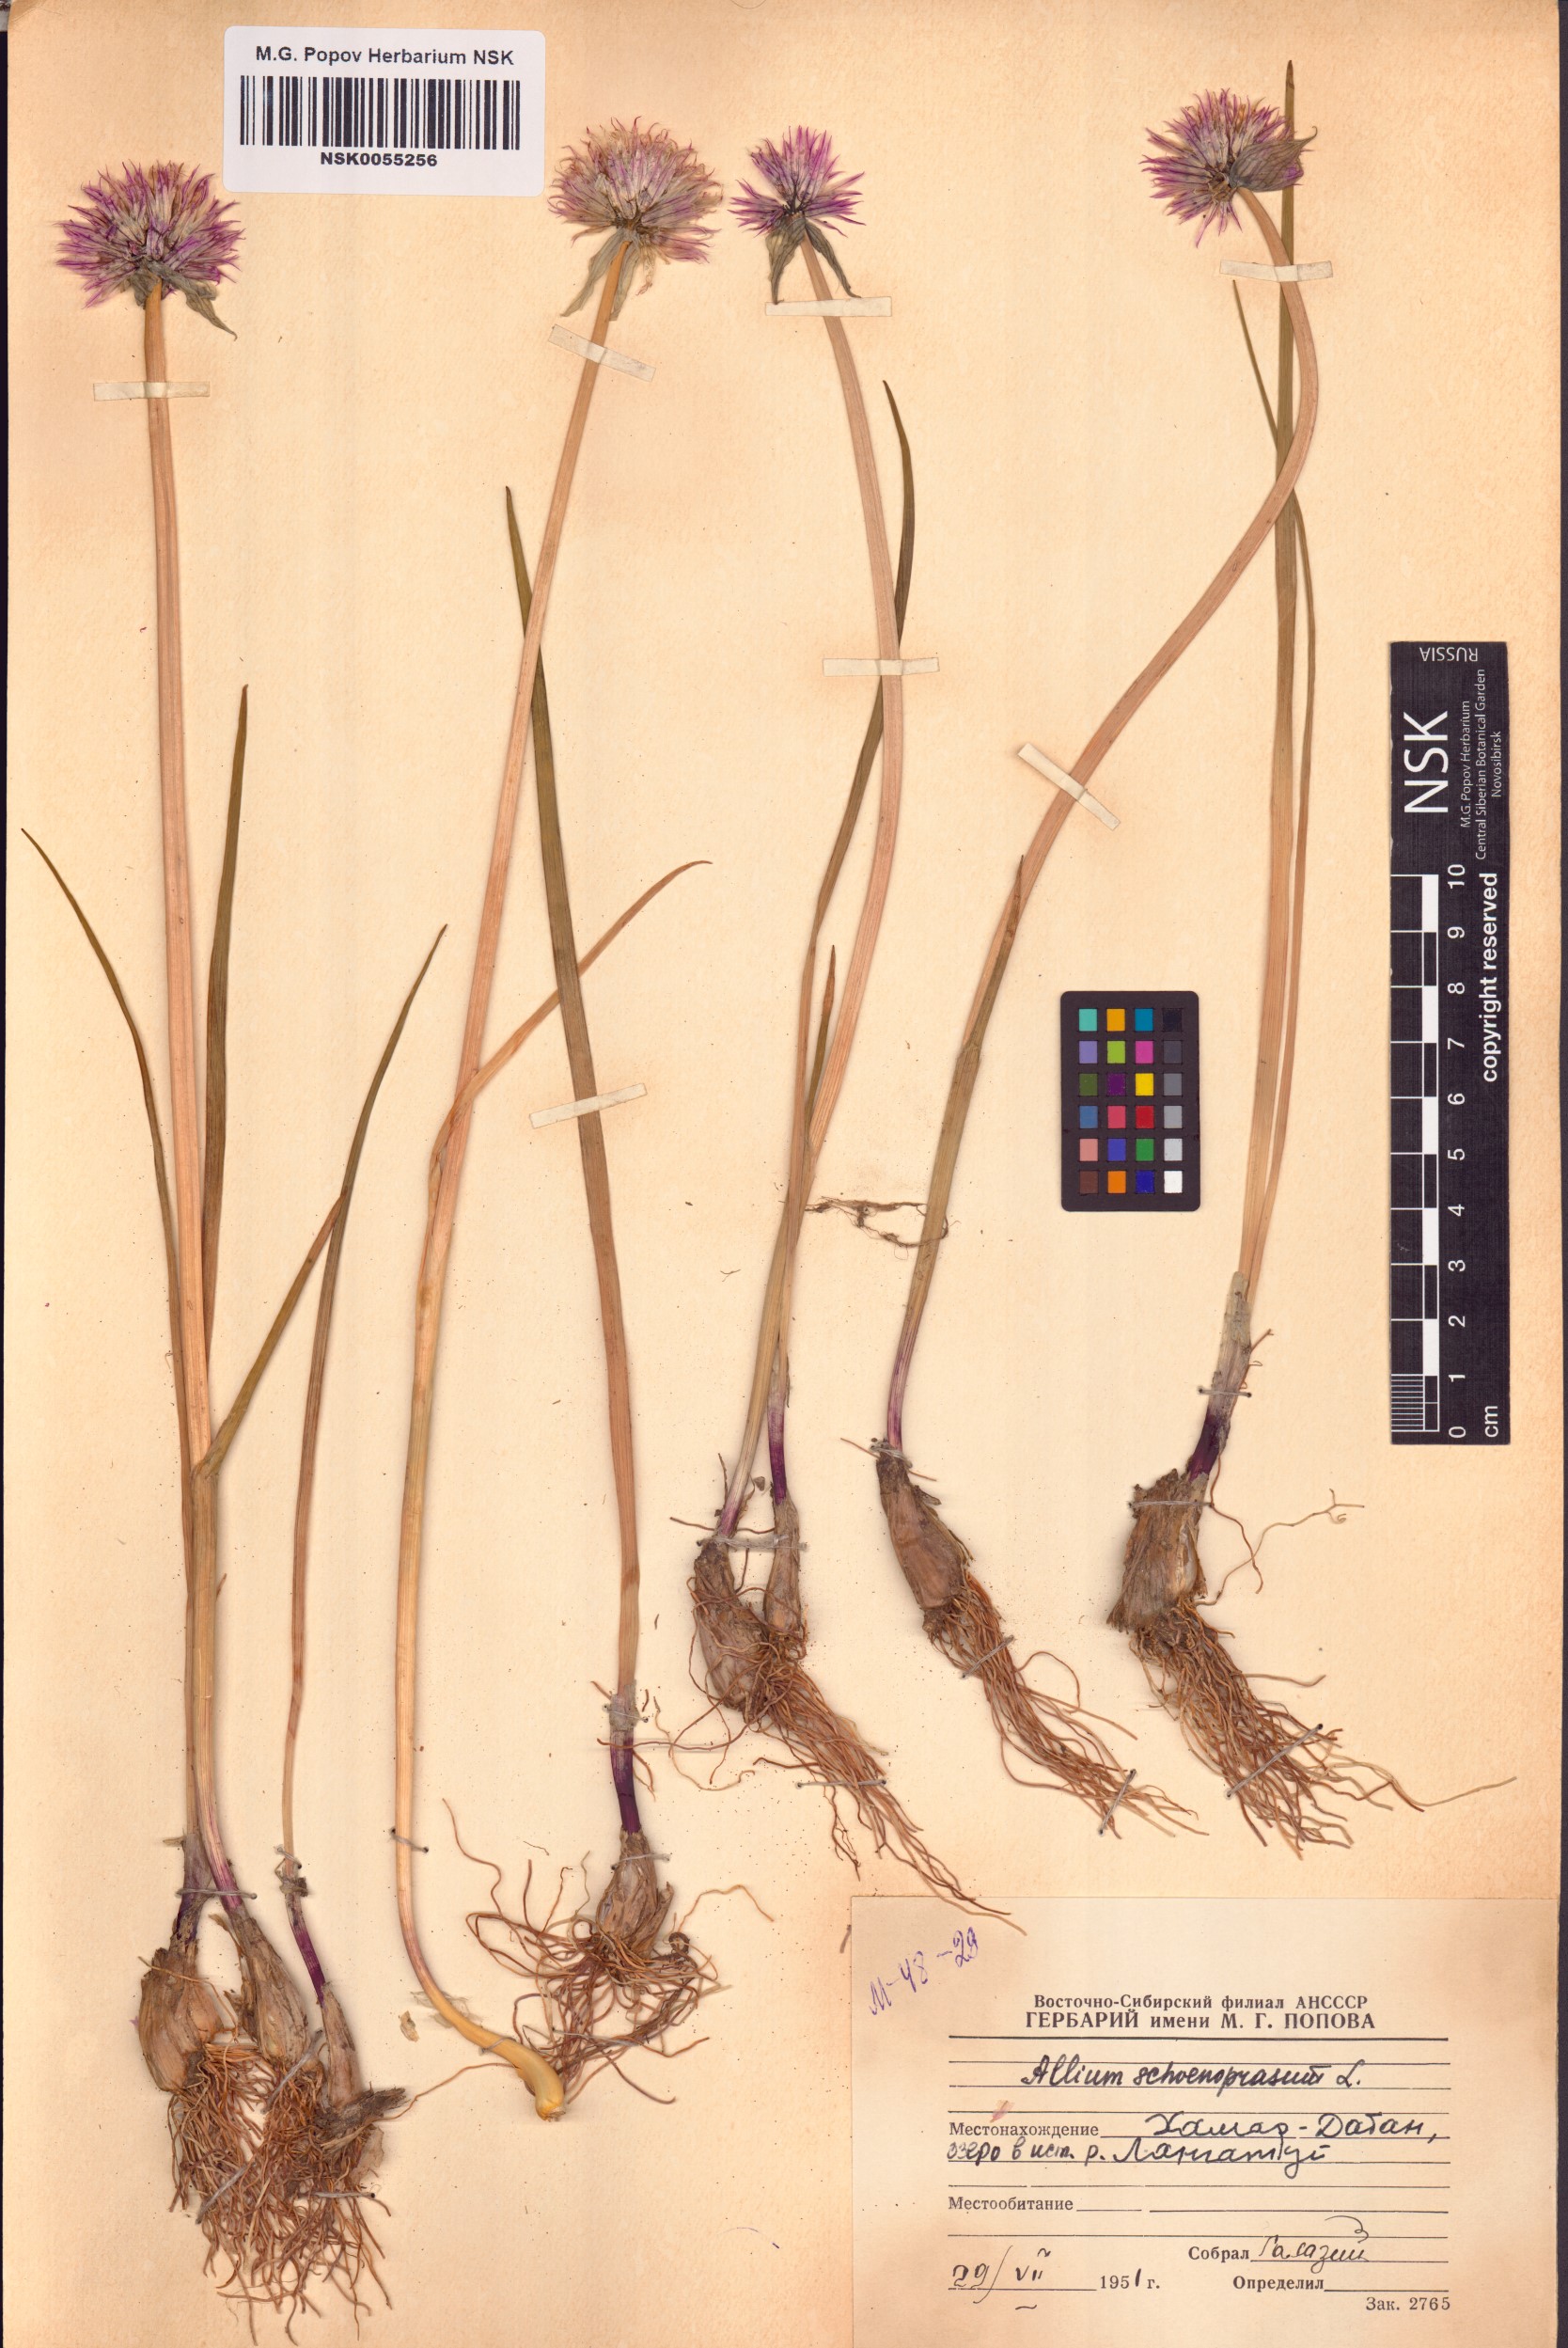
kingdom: Plantae
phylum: Tracheophyta
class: Liliopsida
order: Asparagales
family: Amaryllidaceae
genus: Allium
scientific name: Allium schoenoprasum
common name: Chives
